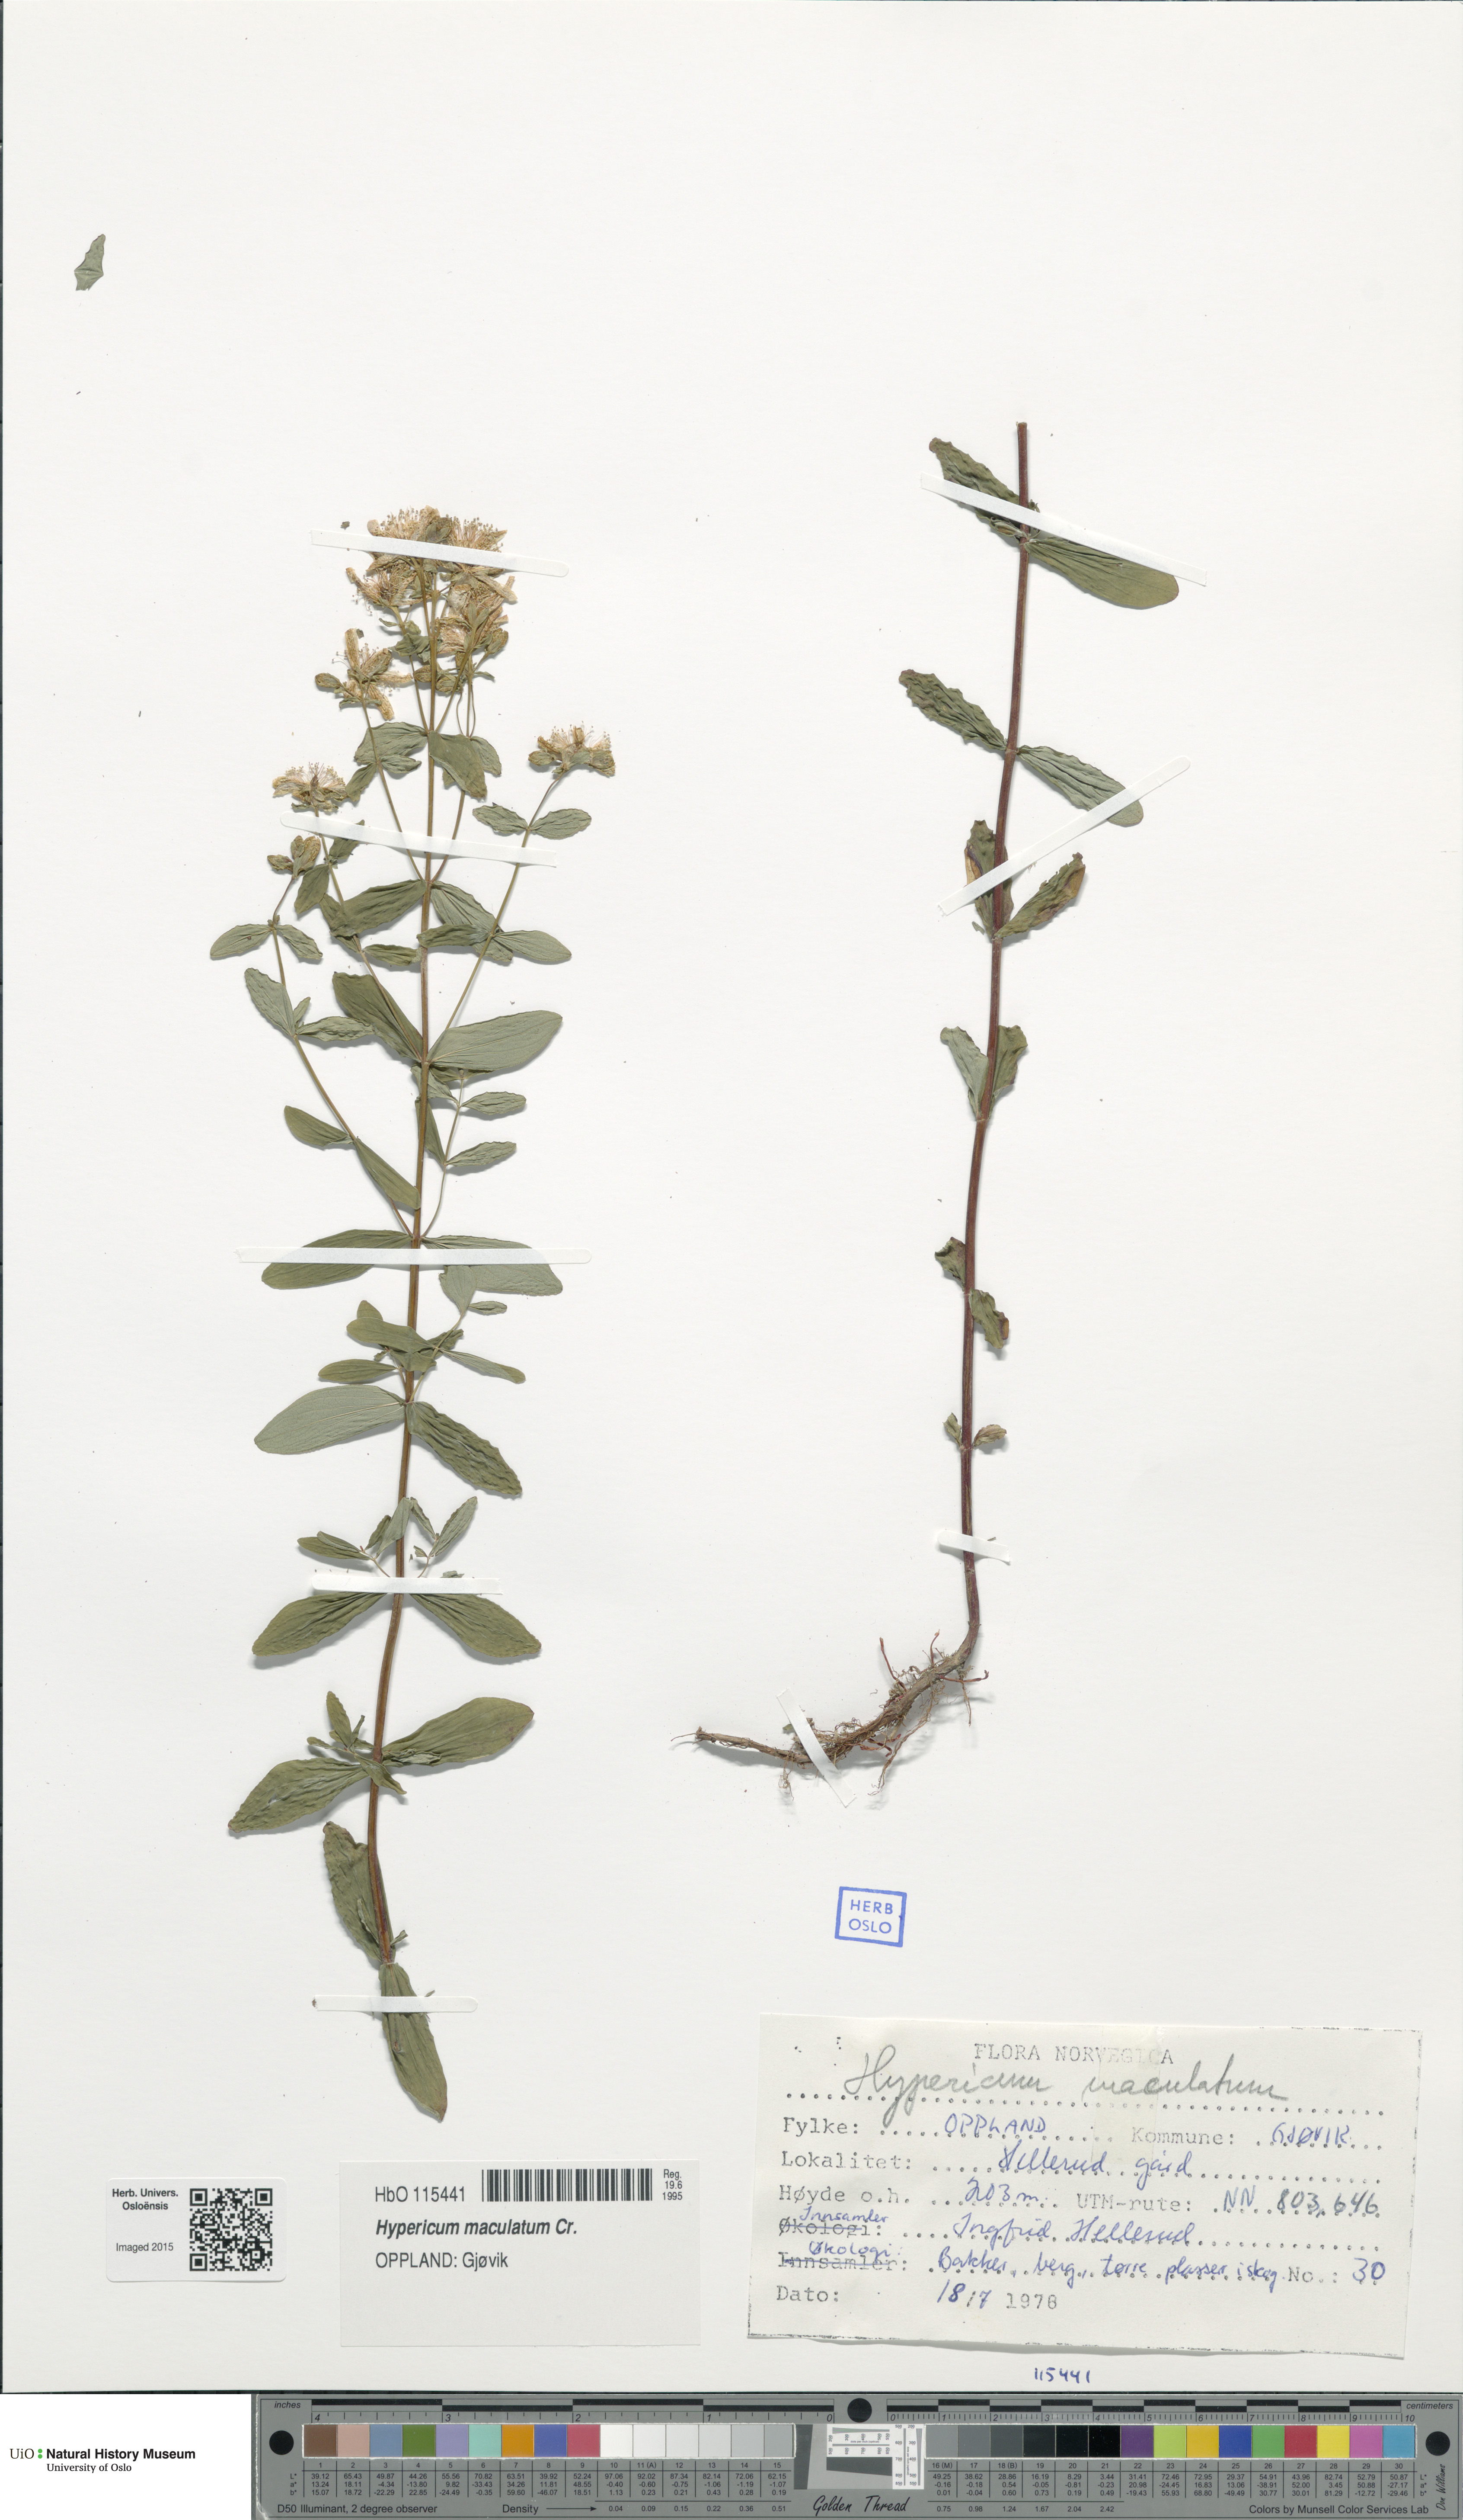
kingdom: Plantae
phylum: Tracheophyta
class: Magnoliopsida
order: Malpighiales
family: Hypericaceae
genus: Hypericum
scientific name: Hypericum maculatum
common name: Imperforate st. john's-wort
